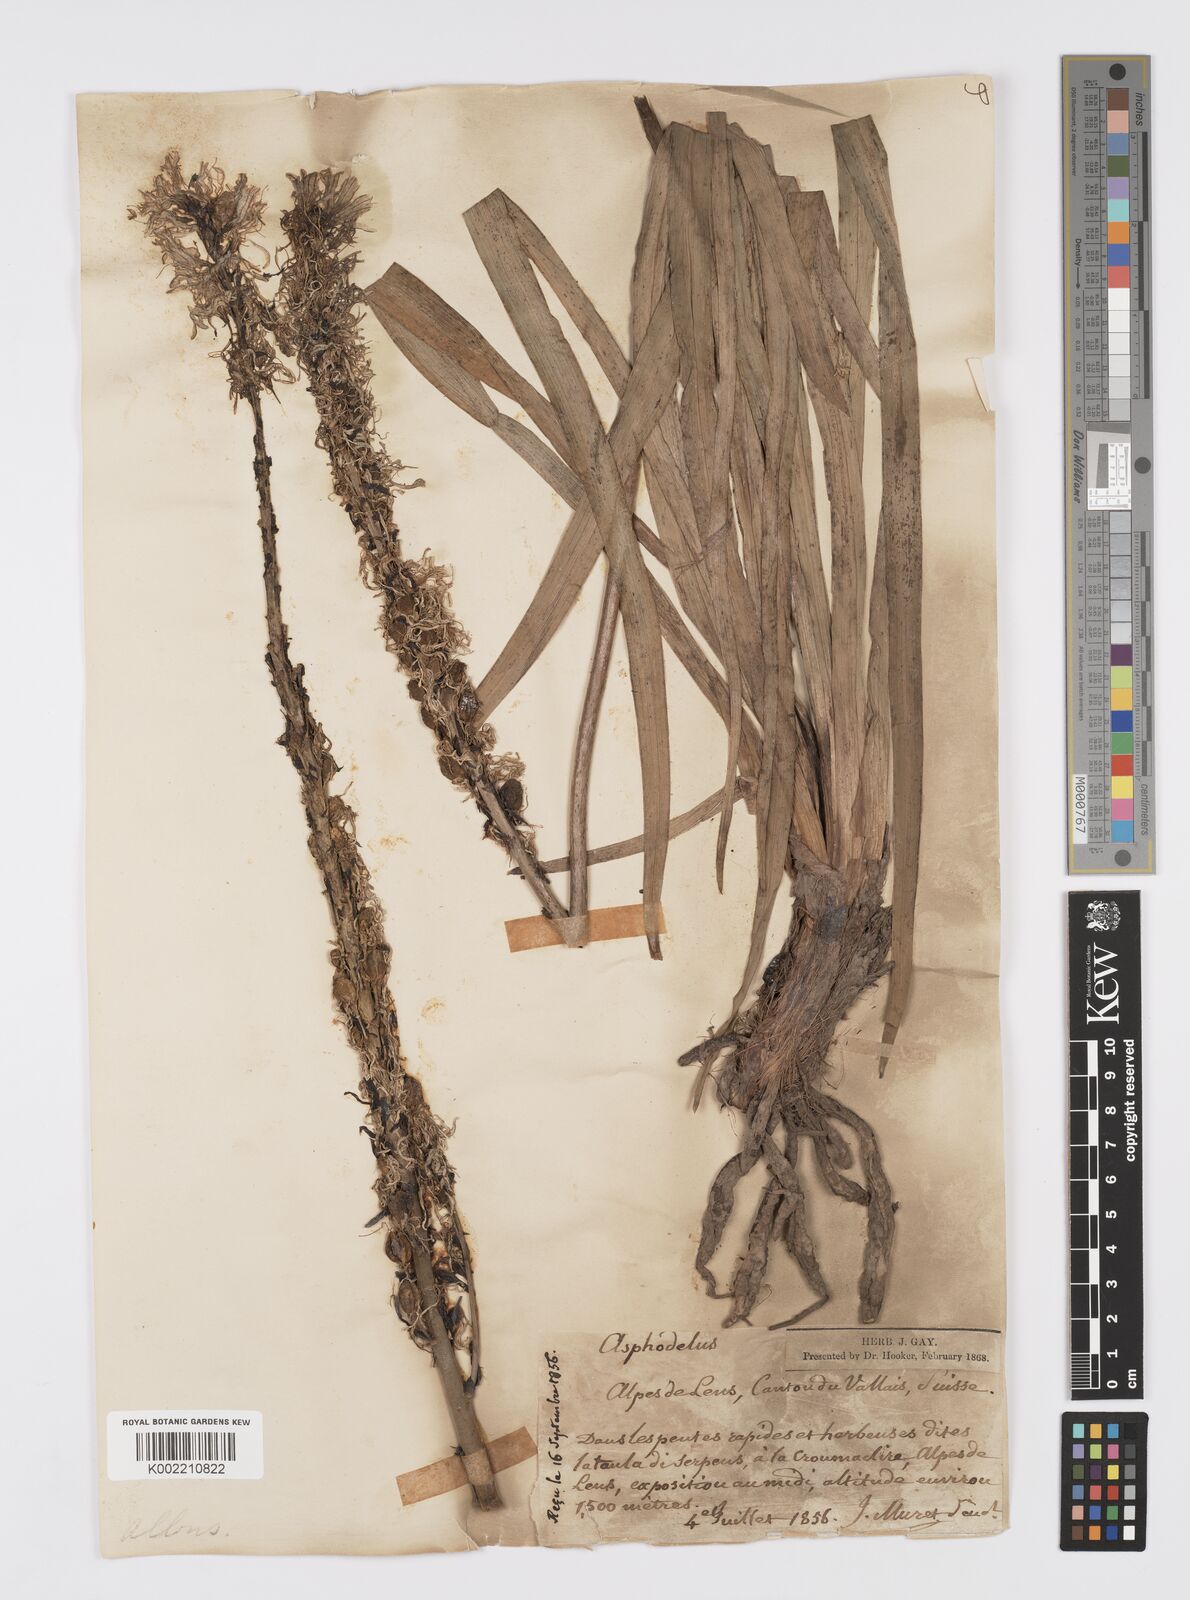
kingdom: Plantae
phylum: Tracheophyta
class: Liliopsida
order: Asparagales
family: Asphodelaceae
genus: Asphodelus
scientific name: Asphodelus albus
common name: White asphodel
